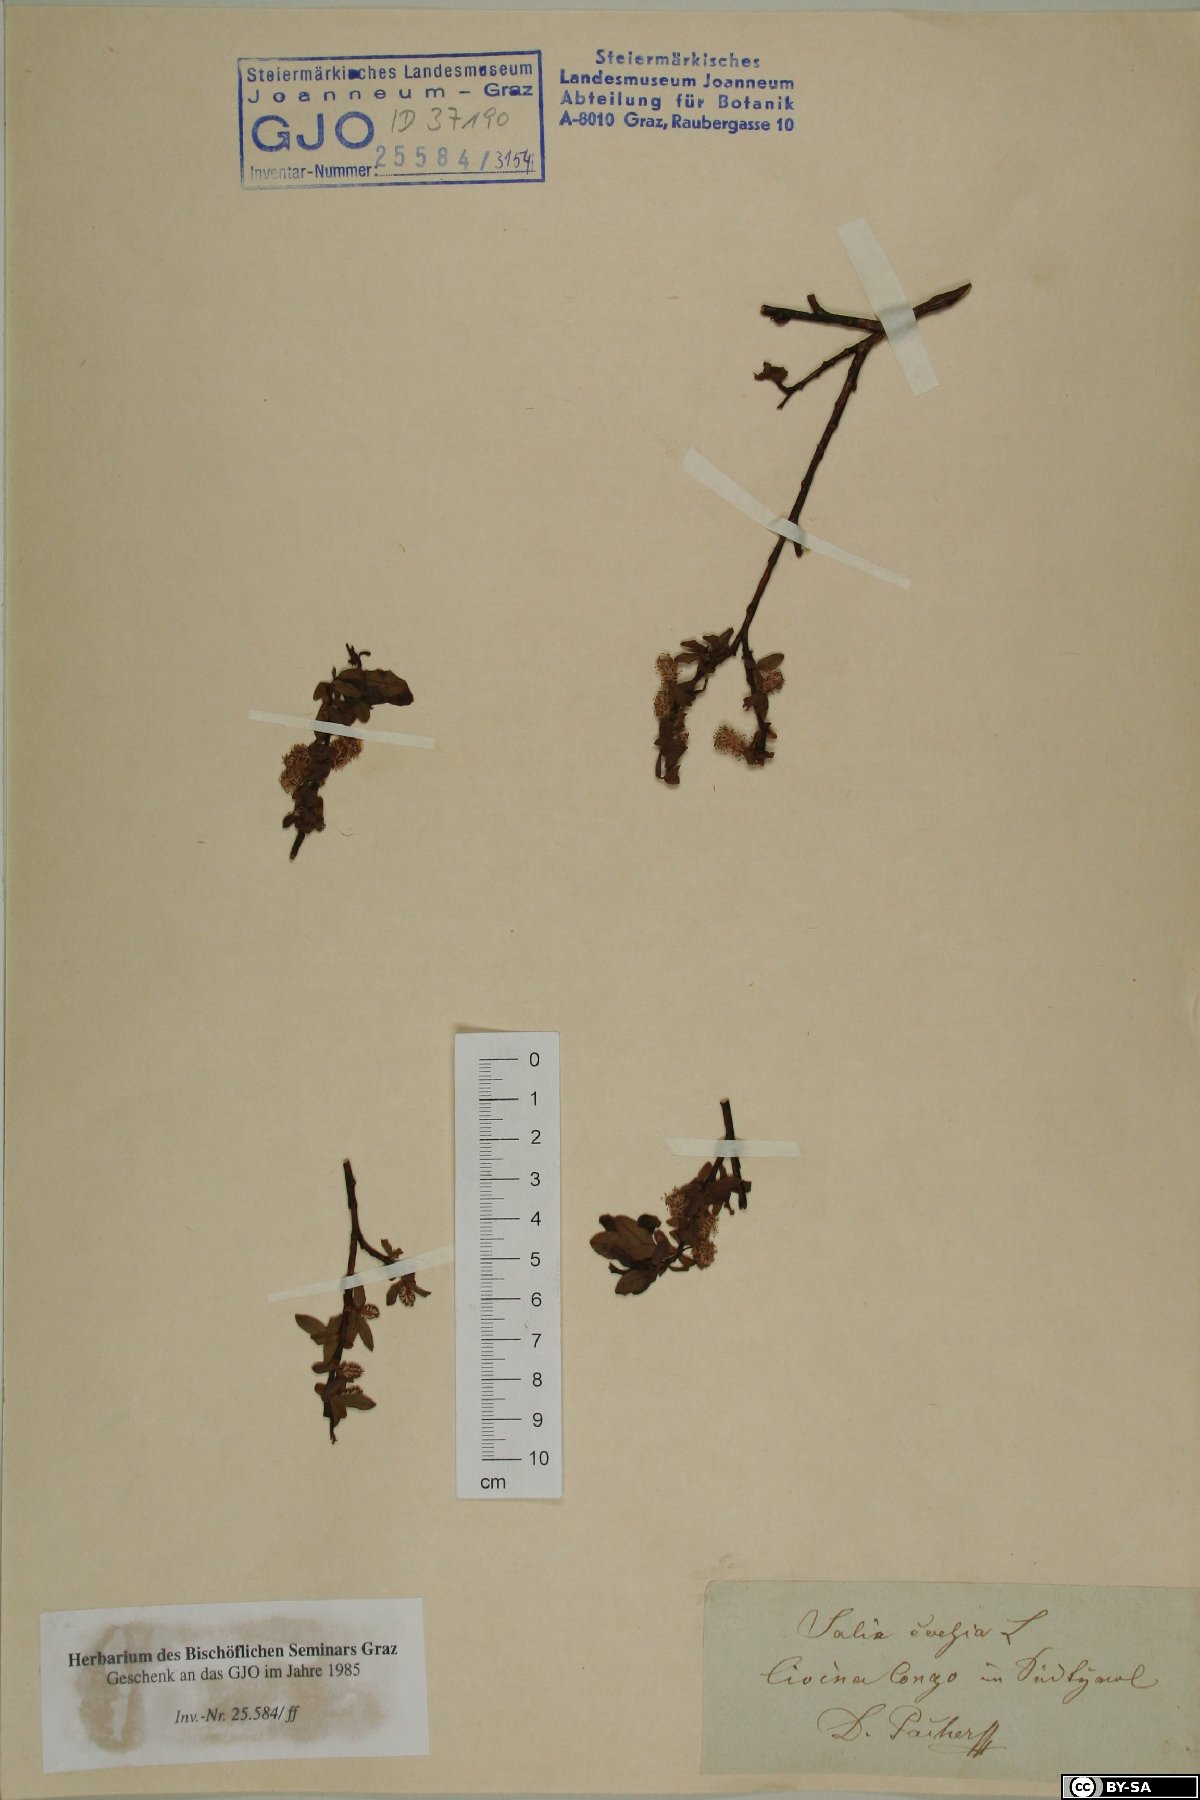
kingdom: Plantae
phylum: Tracheophyta
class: Magnoliopsida
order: Malpighiales
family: Salicaceae
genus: Salix
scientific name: Salix
